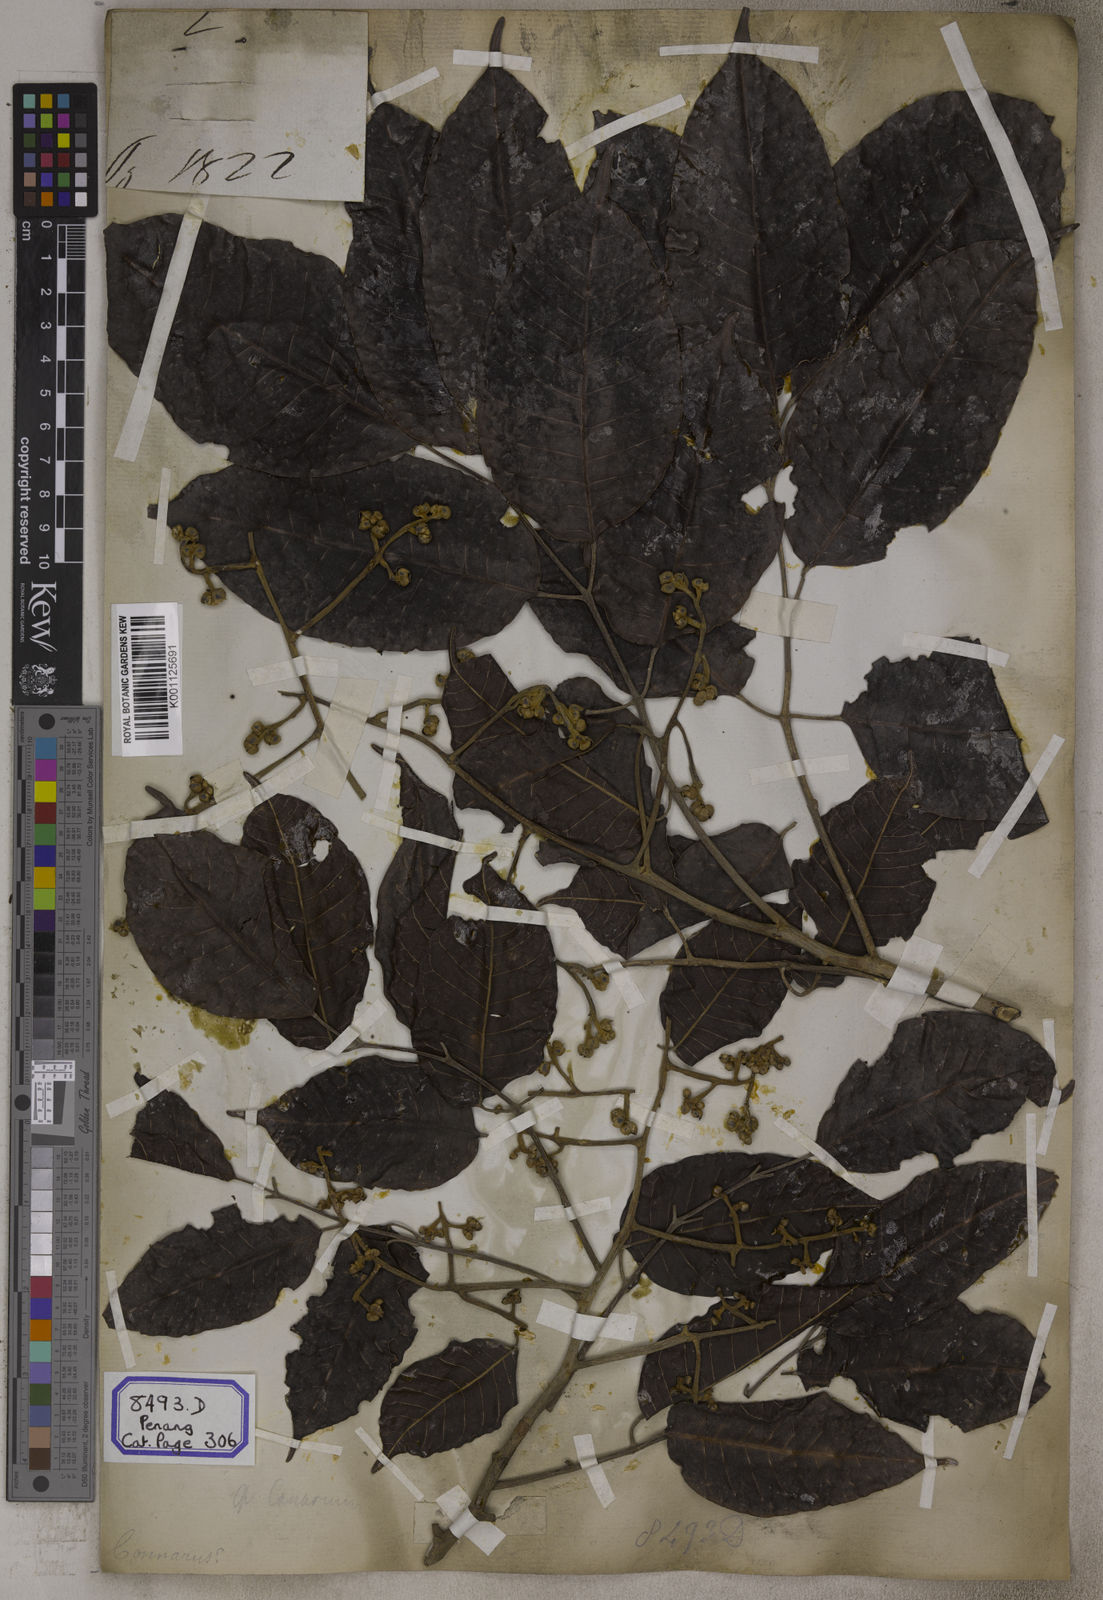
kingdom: Plantae
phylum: Tracheophyta
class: Magnoliopsida
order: Sapindales
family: Burseraceae
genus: Canarium
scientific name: Canarium indicum
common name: Canarium-nut
